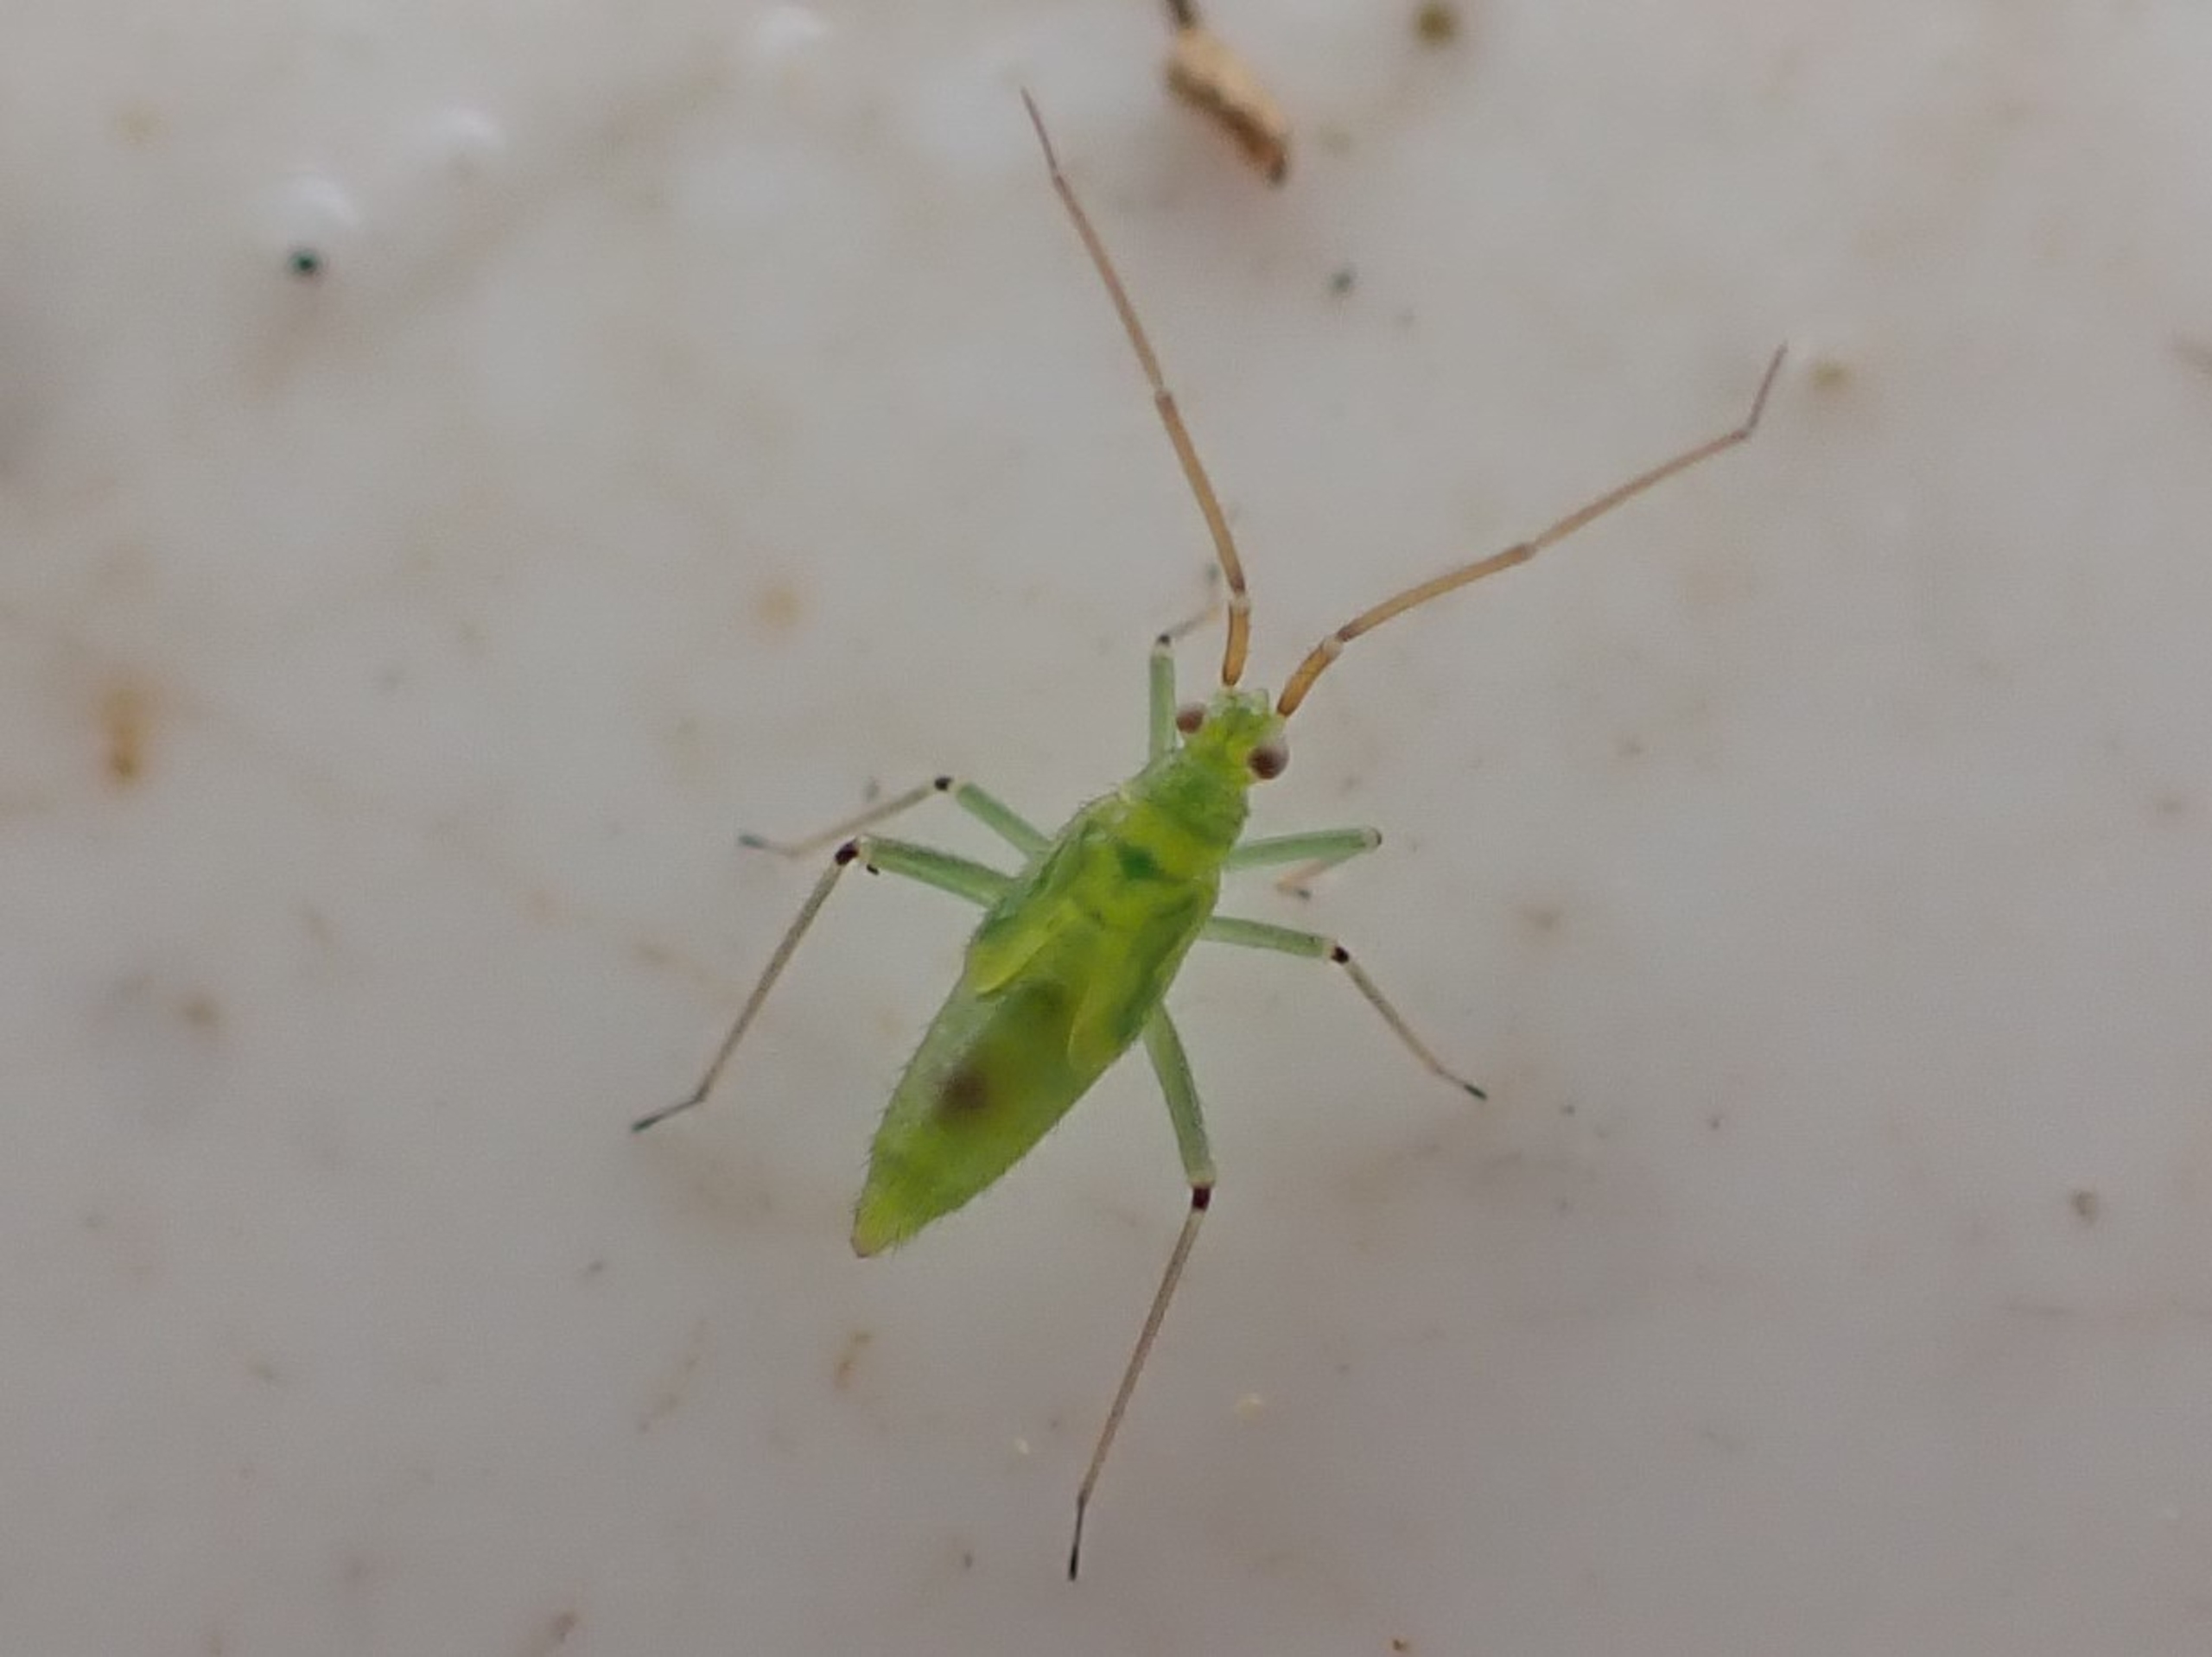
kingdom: Animalia
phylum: Arthropoda
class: Insecta
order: Hemiptera
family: Miridae
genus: Blepharidopterus
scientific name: Blepharidopterus angulatus
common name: Sortknæet blomstertæge
